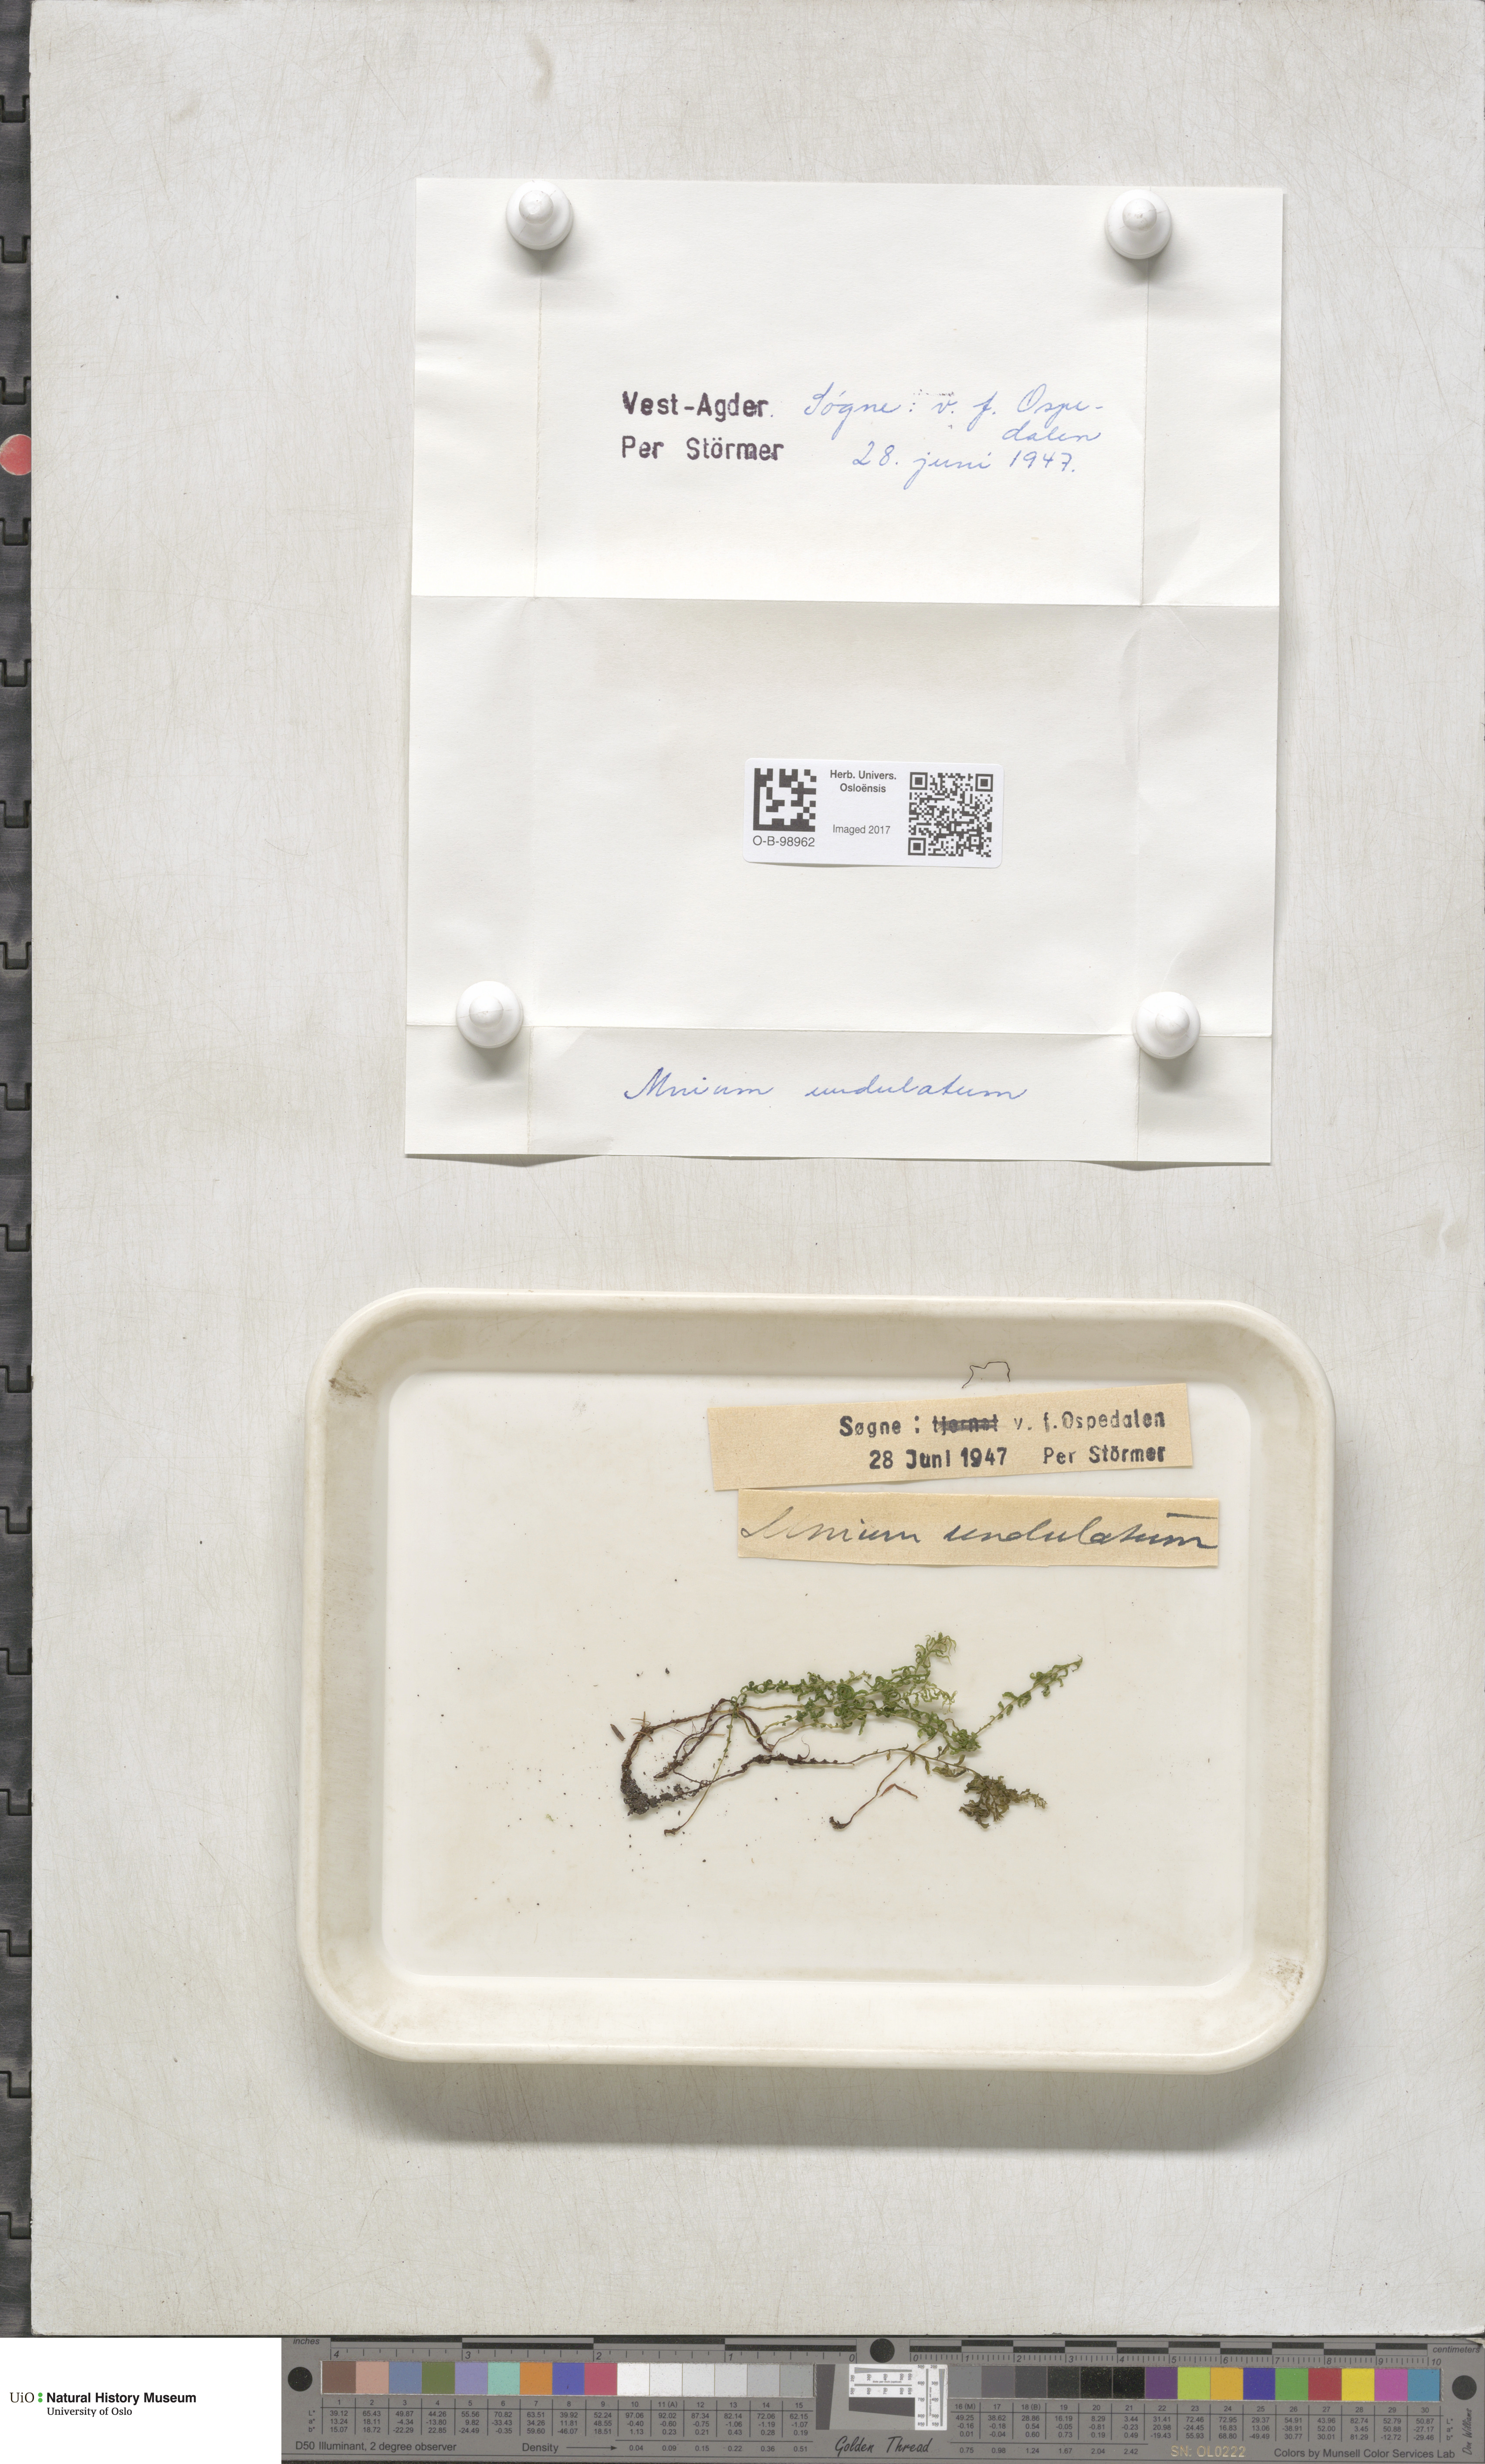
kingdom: Plantae
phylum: Bryophyta
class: Bryopsida
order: Bryales
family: Mniaceae
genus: Plagiomnium
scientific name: Plagiomnium undulatum
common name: Hart's-tongue thyme-moss
